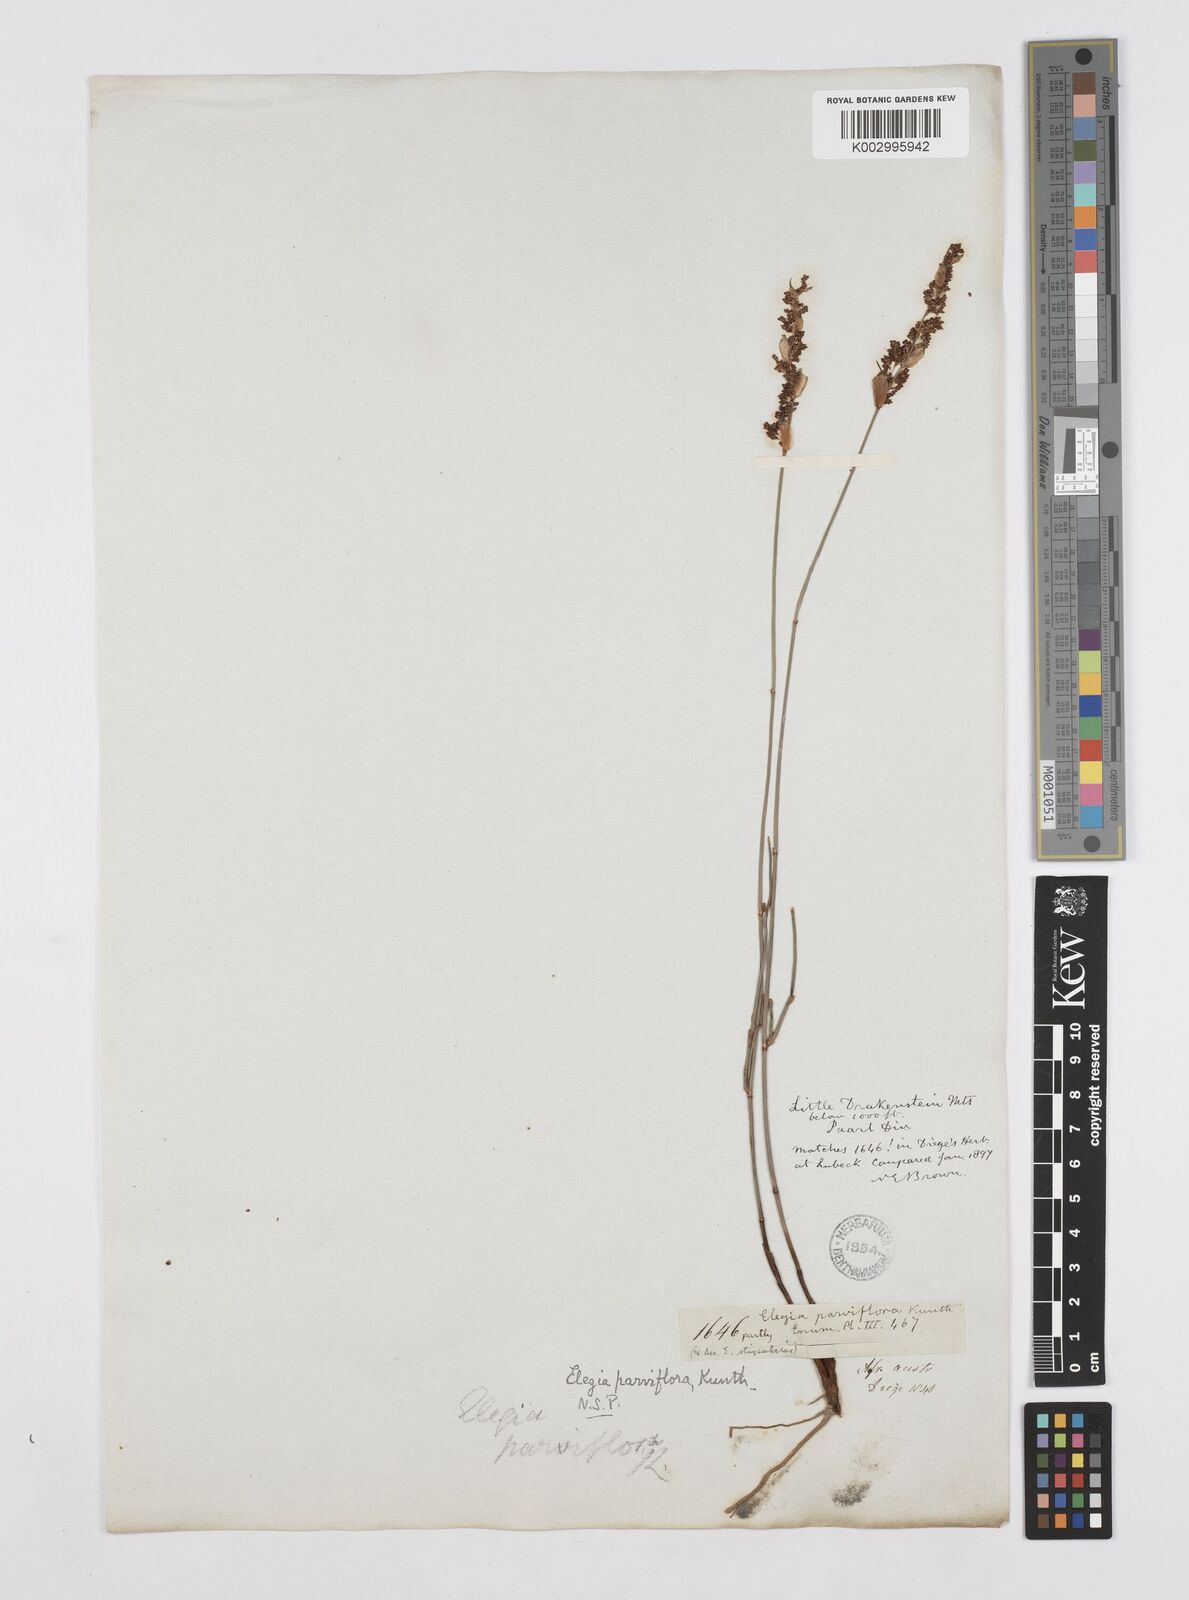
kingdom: Plantae
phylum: Tracheophyta
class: Liliopsida
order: Poales
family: Restionaceae
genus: Cannomois
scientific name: Cannomois parviflora
